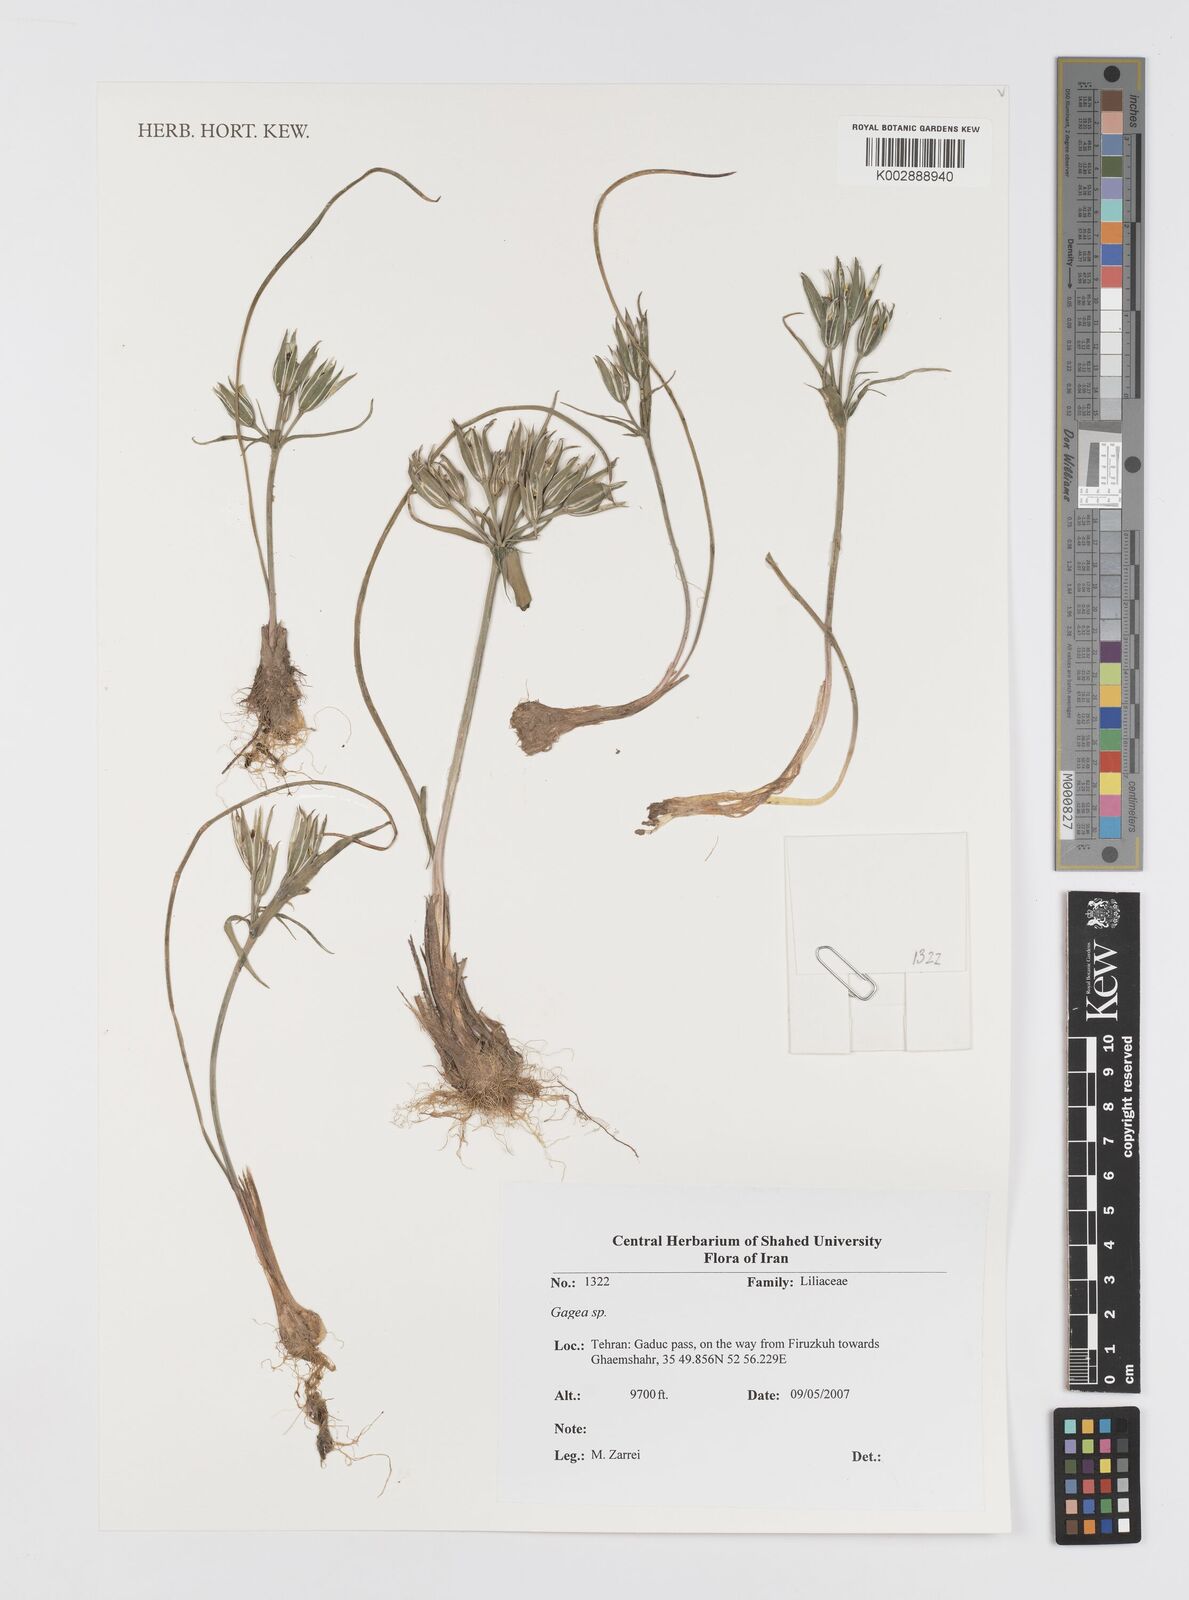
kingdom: Plantae
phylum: Tracheophyta
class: Liliopsida
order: Liliales
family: Liliaceae
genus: Gagea
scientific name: Gagea
